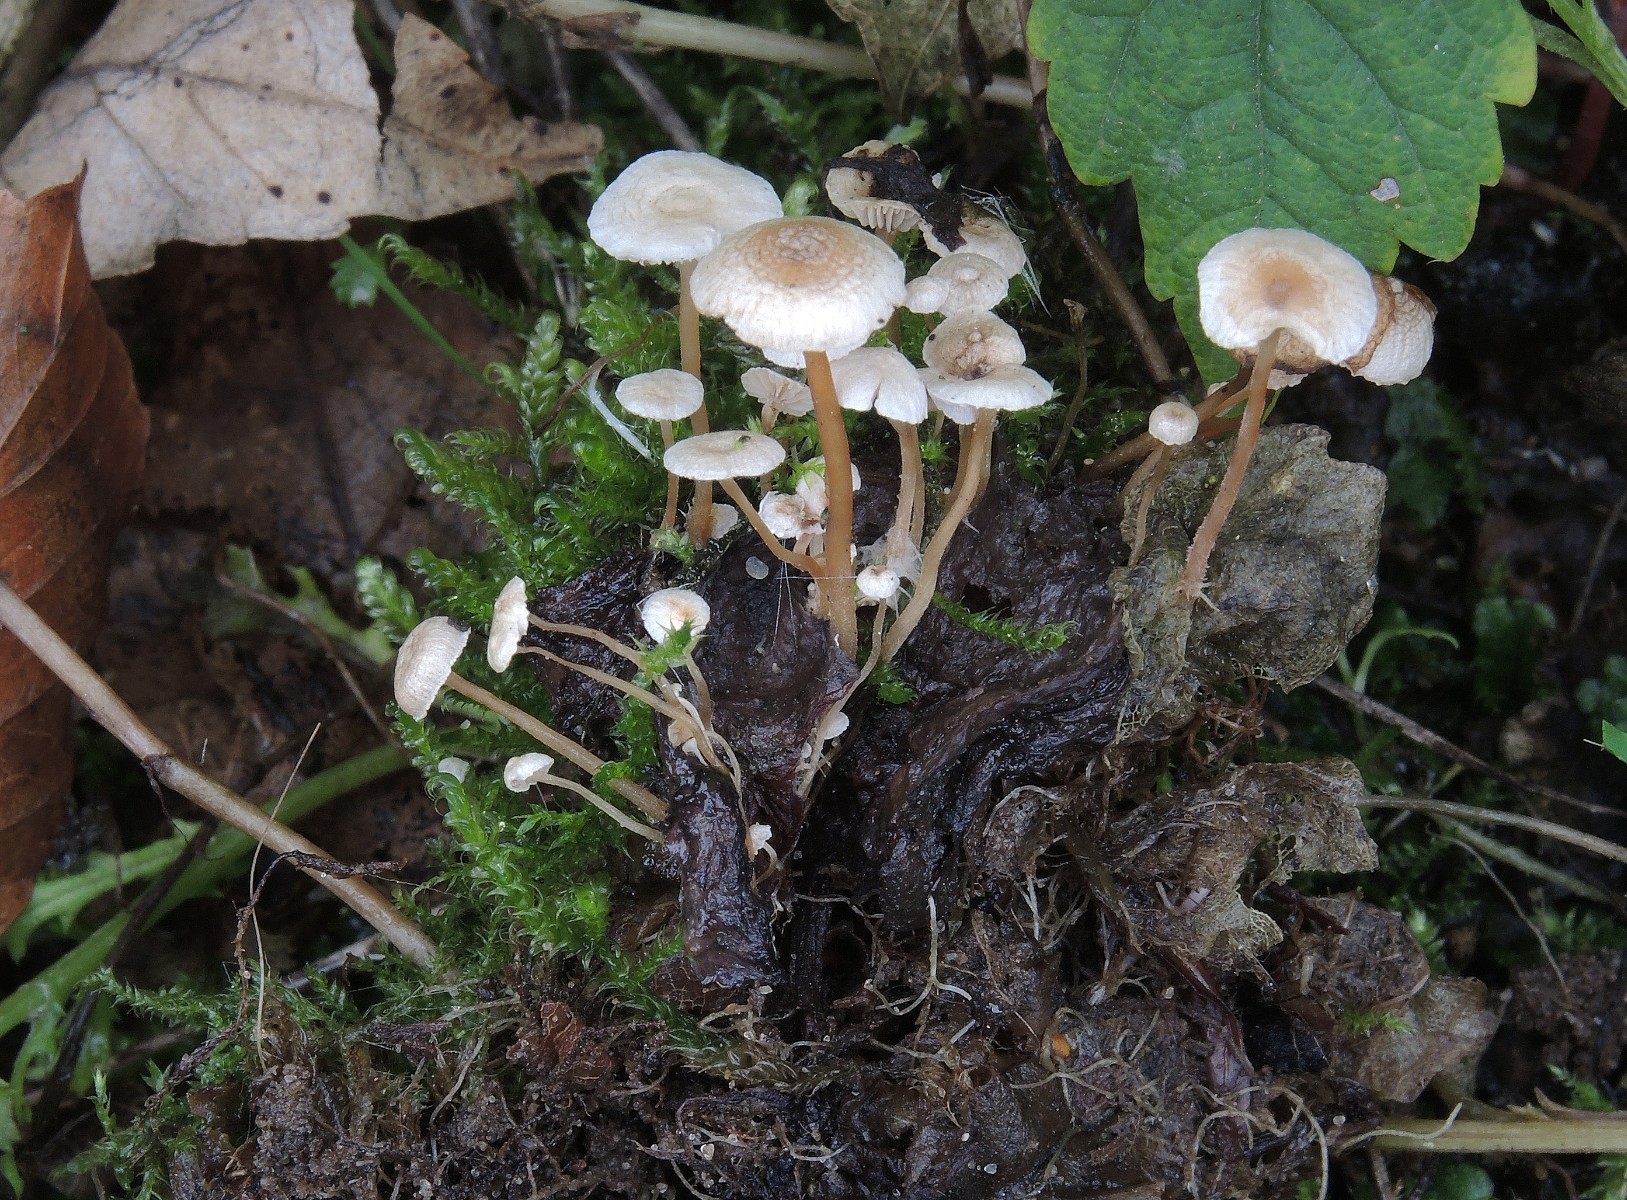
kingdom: Fungi
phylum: Basidiomycota
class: Agaricomycetes
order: Agaricales
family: Tricholomataceae
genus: Collybia
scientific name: Collybia cirrhata
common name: silke-lighat
